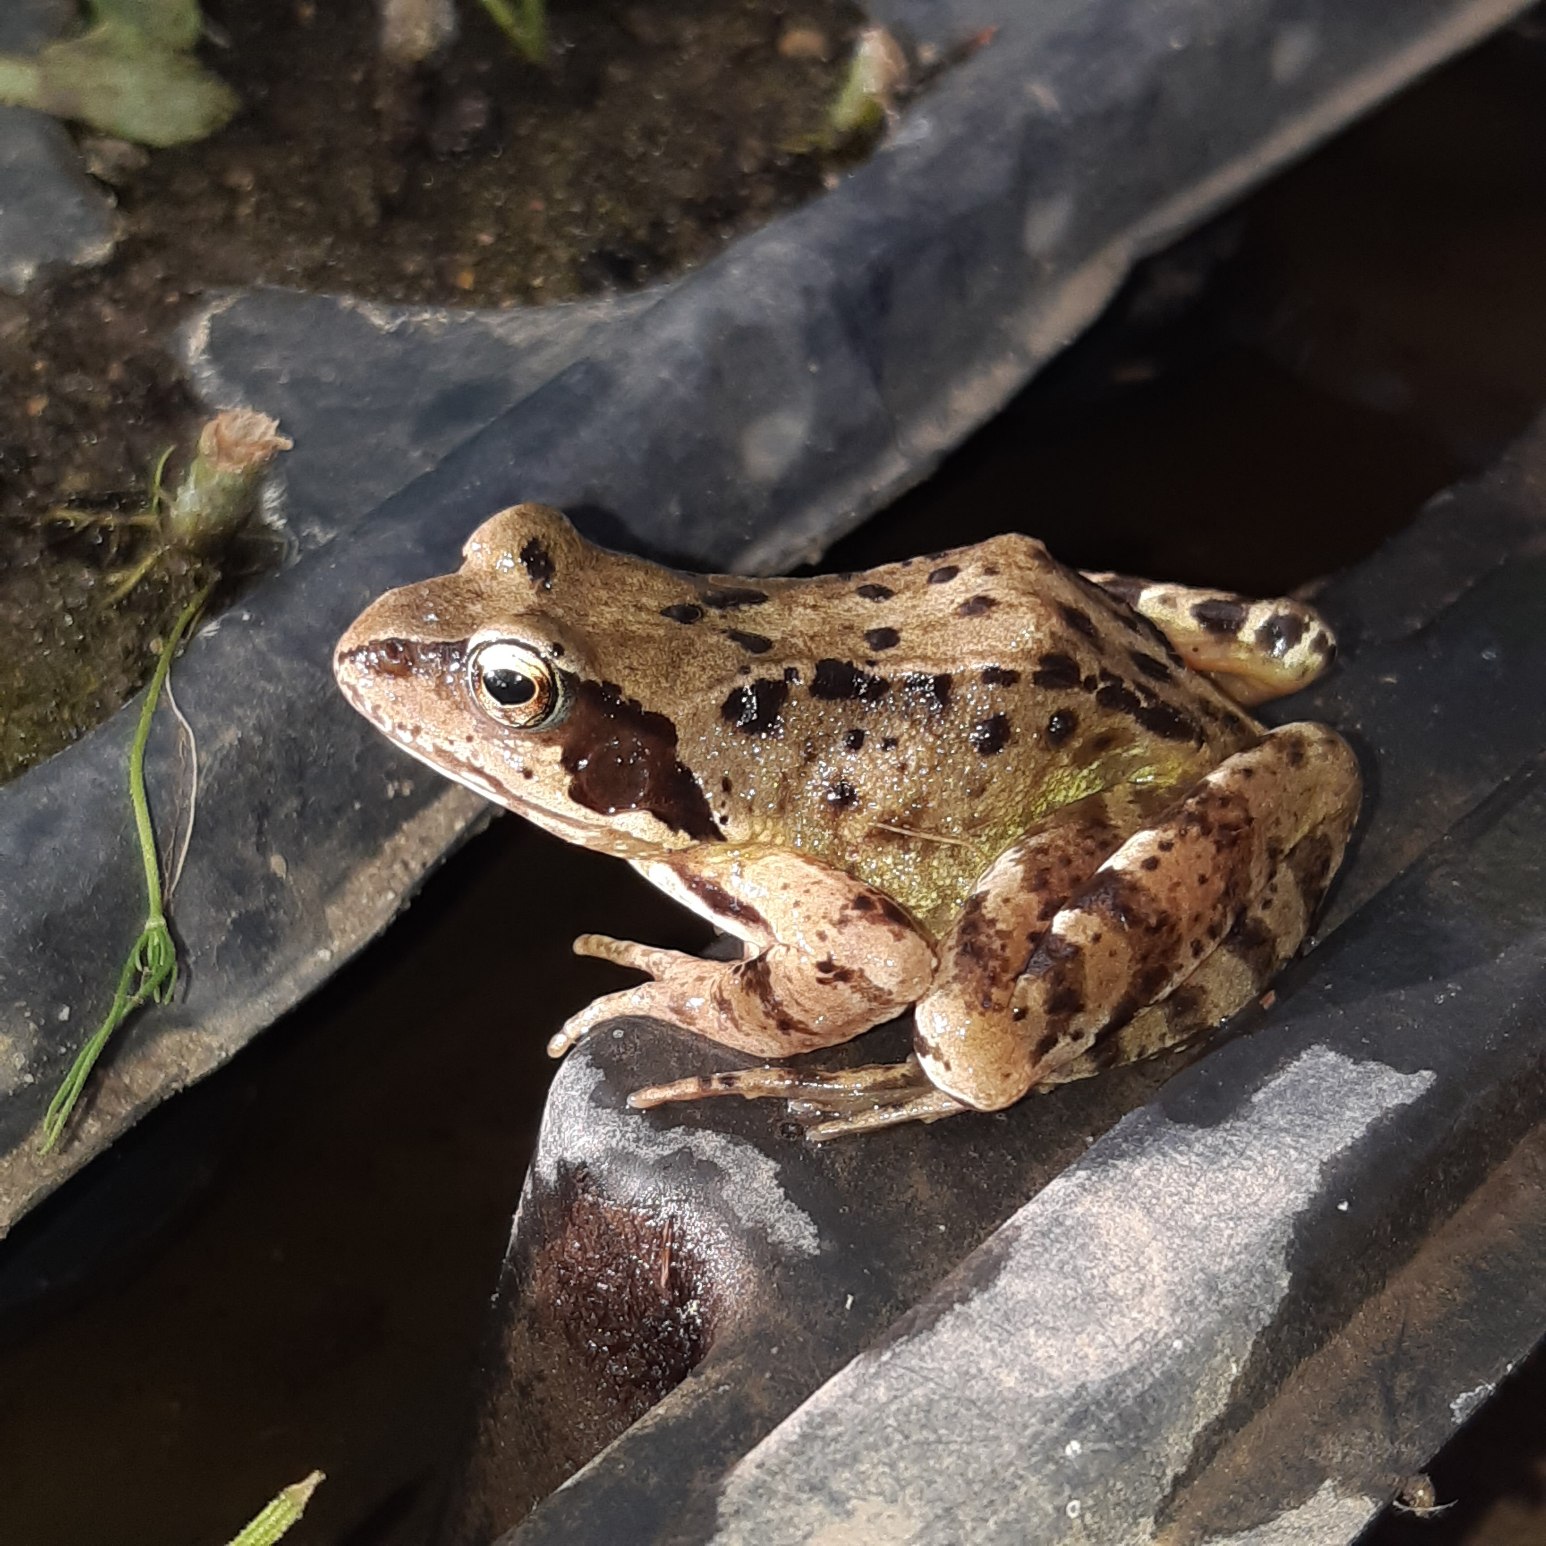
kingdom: Animalia
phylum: Chordata
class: Amphibia
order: Anura
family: Ranidae
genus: Rana
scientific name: Rana temporaria
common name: Butsnudet frø
